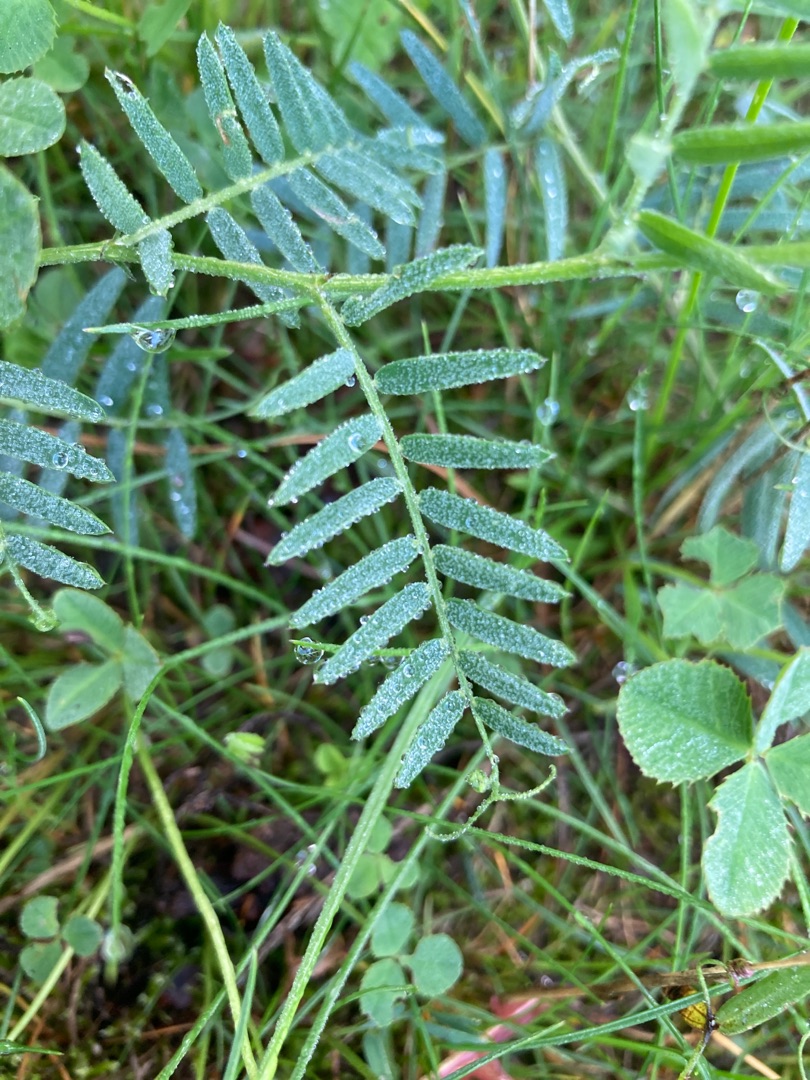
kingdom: Plantae
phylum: Tracheophyta
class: Magnoliopsida
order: Fabales
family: Fabaceae
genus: Vicia
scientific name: Vicia cracca
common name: Muse-vikke
